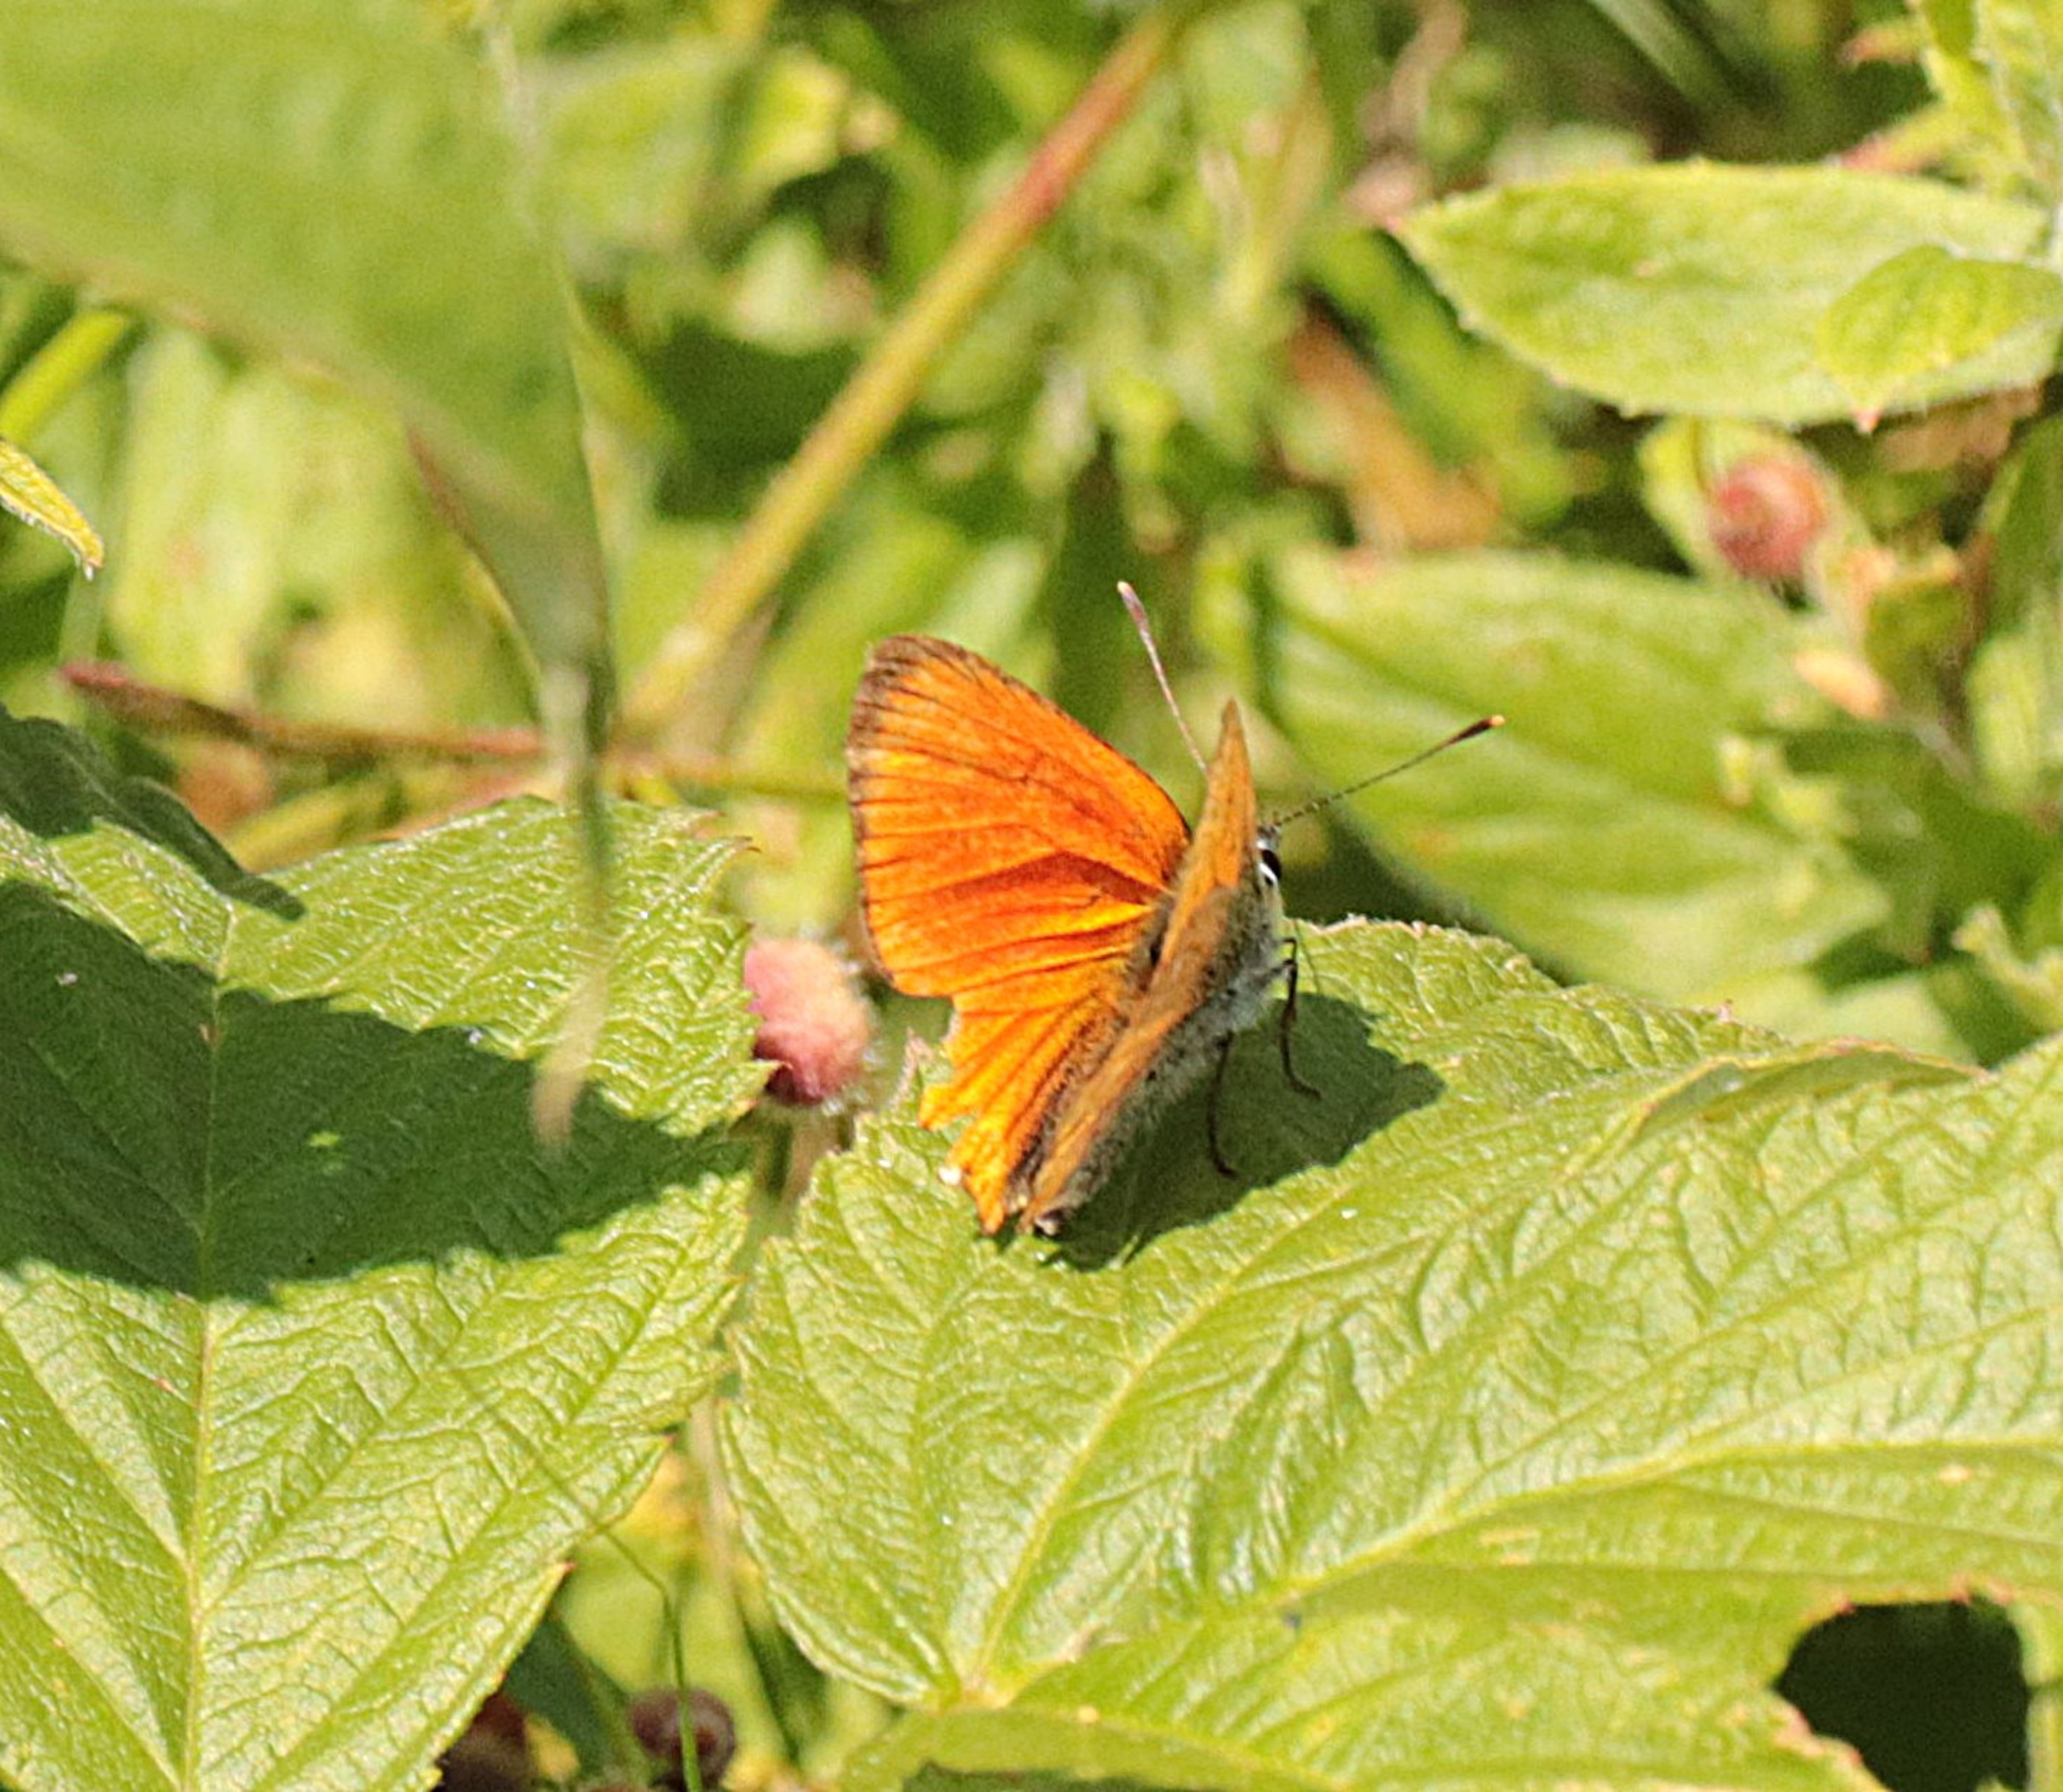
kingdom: Animalia
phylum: Arthropoda
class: Insecta
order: Lepidoptera
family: Lycaenidae
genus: Lycaena
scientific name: Lycaena virgaureae
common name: Dukatsommerfugl
